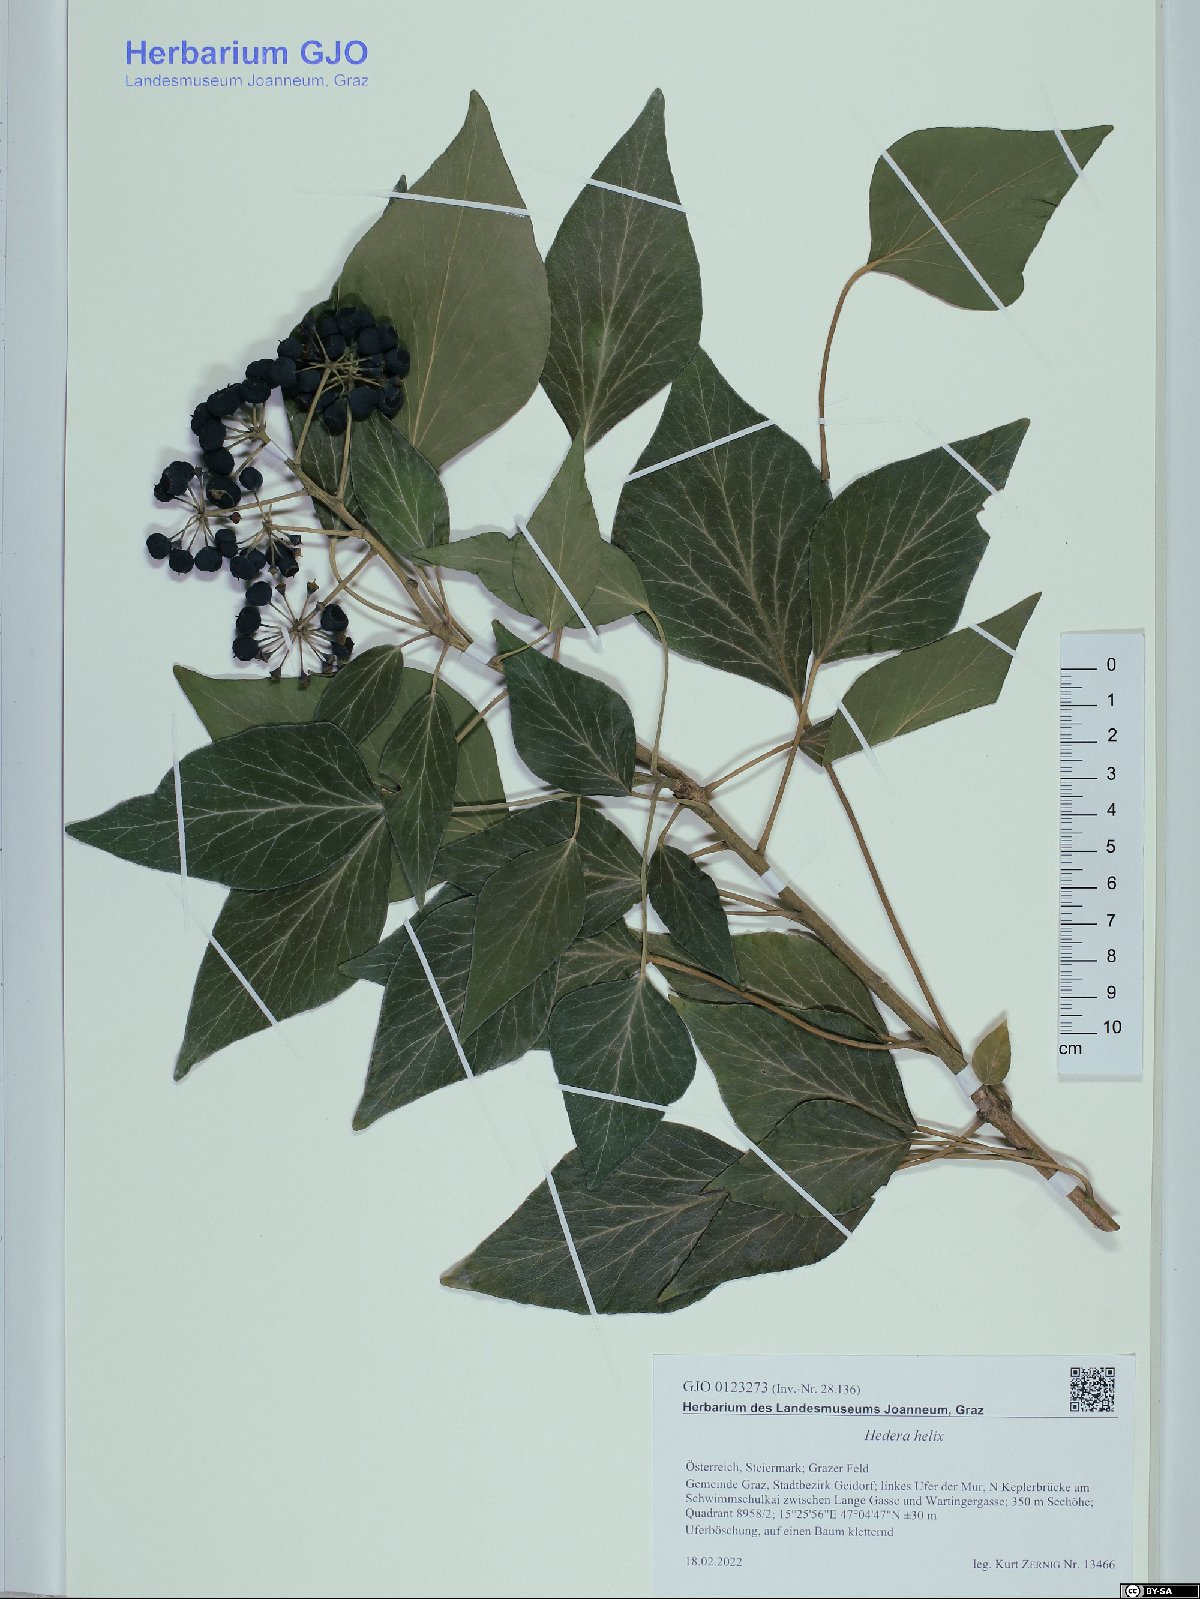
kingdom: Plantae
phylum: Tracheophyta
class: Magnoliopsida
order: Apiales
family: Araliaceae
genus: Hedera
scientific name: Hedera helix
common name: Ivy
